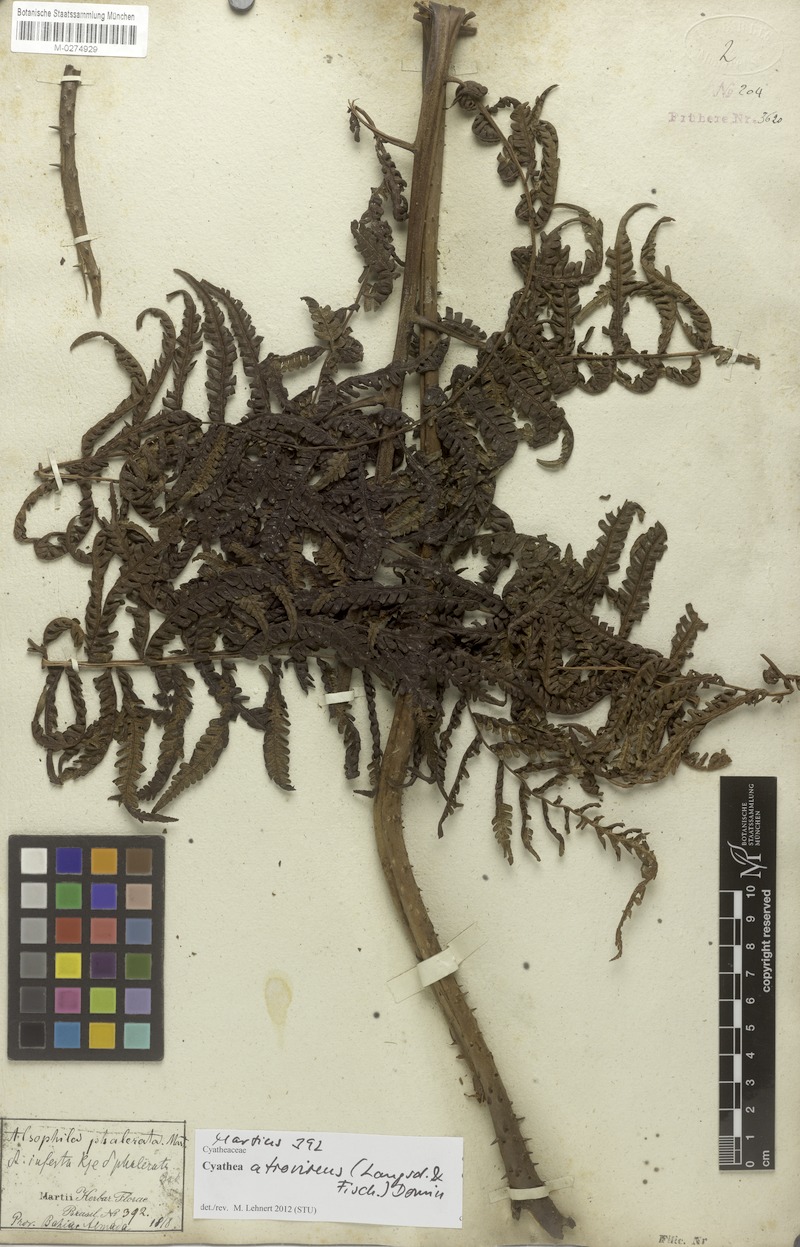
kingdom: Plantae
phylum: Tracheophyta
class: Polypodiopsida
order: Cyatheales
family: Cyatheaceae
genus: Cyathea
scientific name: Cyathea atrovirens
